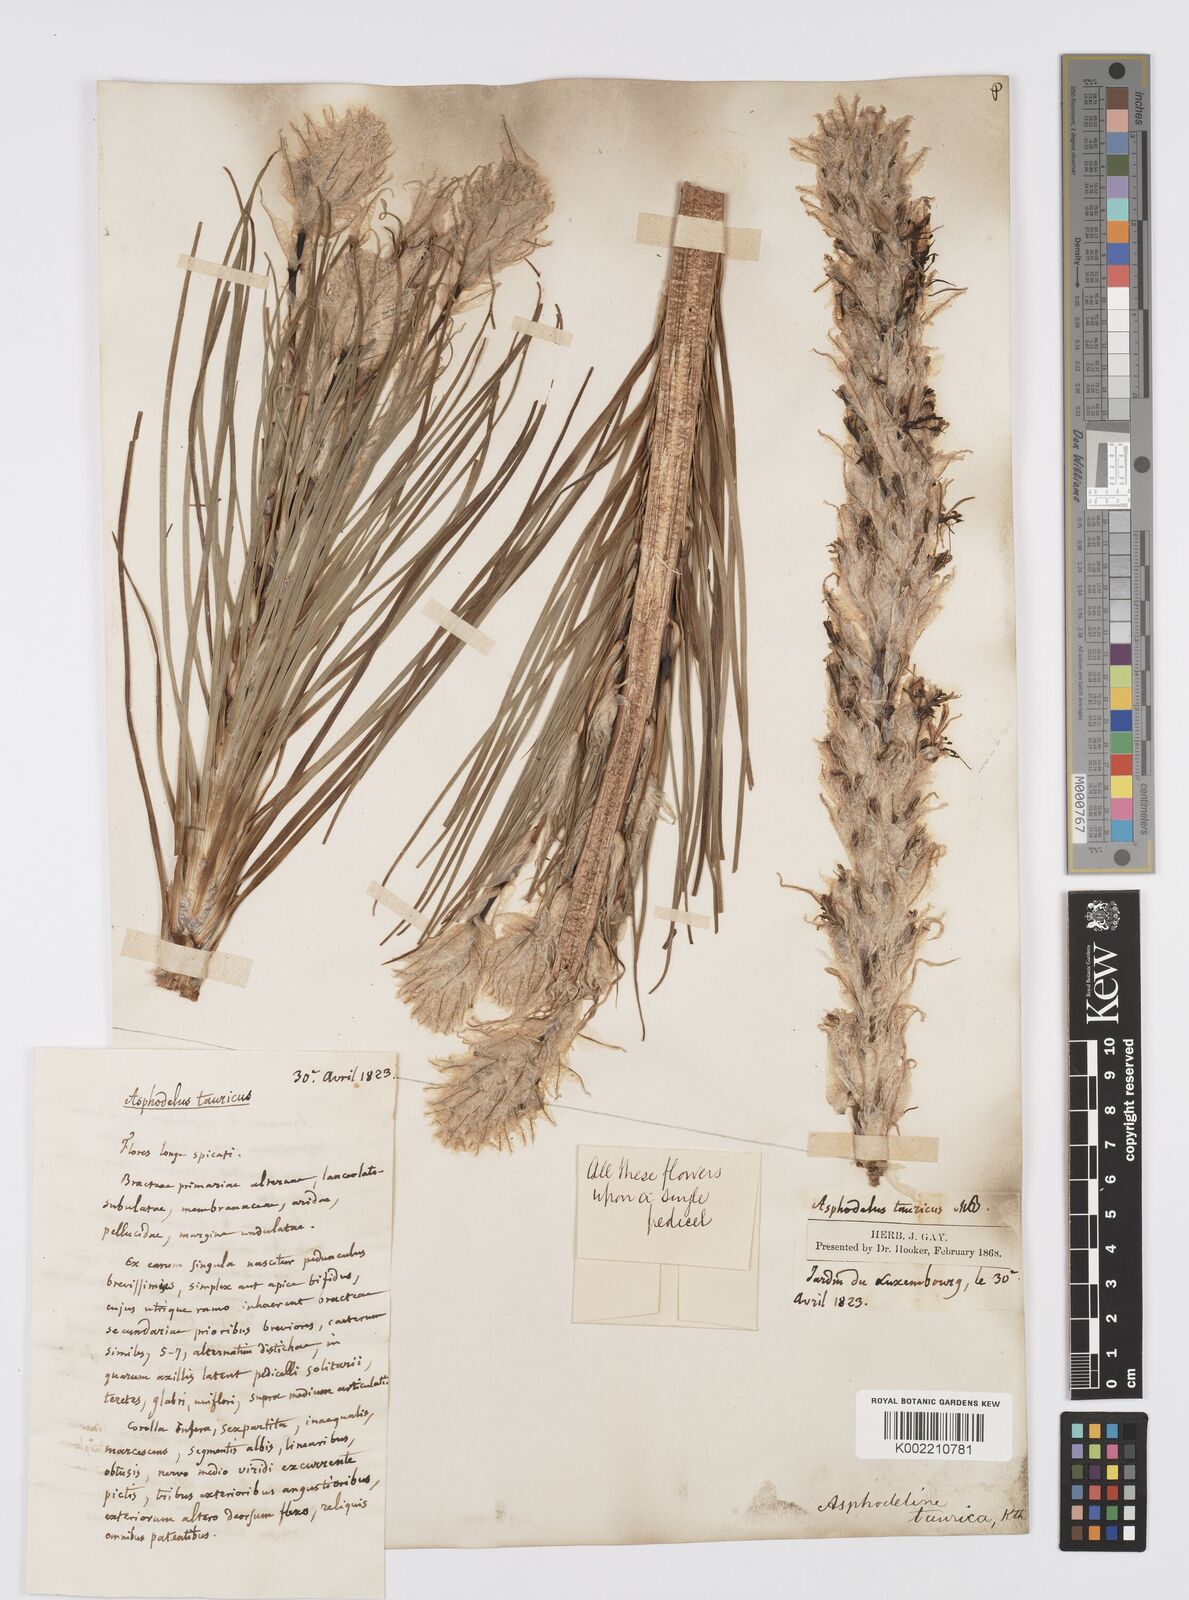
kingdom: Plantae
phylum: Tracheophyta
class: Liliopsida
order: Asparagales
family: Asphodelaceae
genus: Asphodeline
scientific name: Asphodeline taurica
